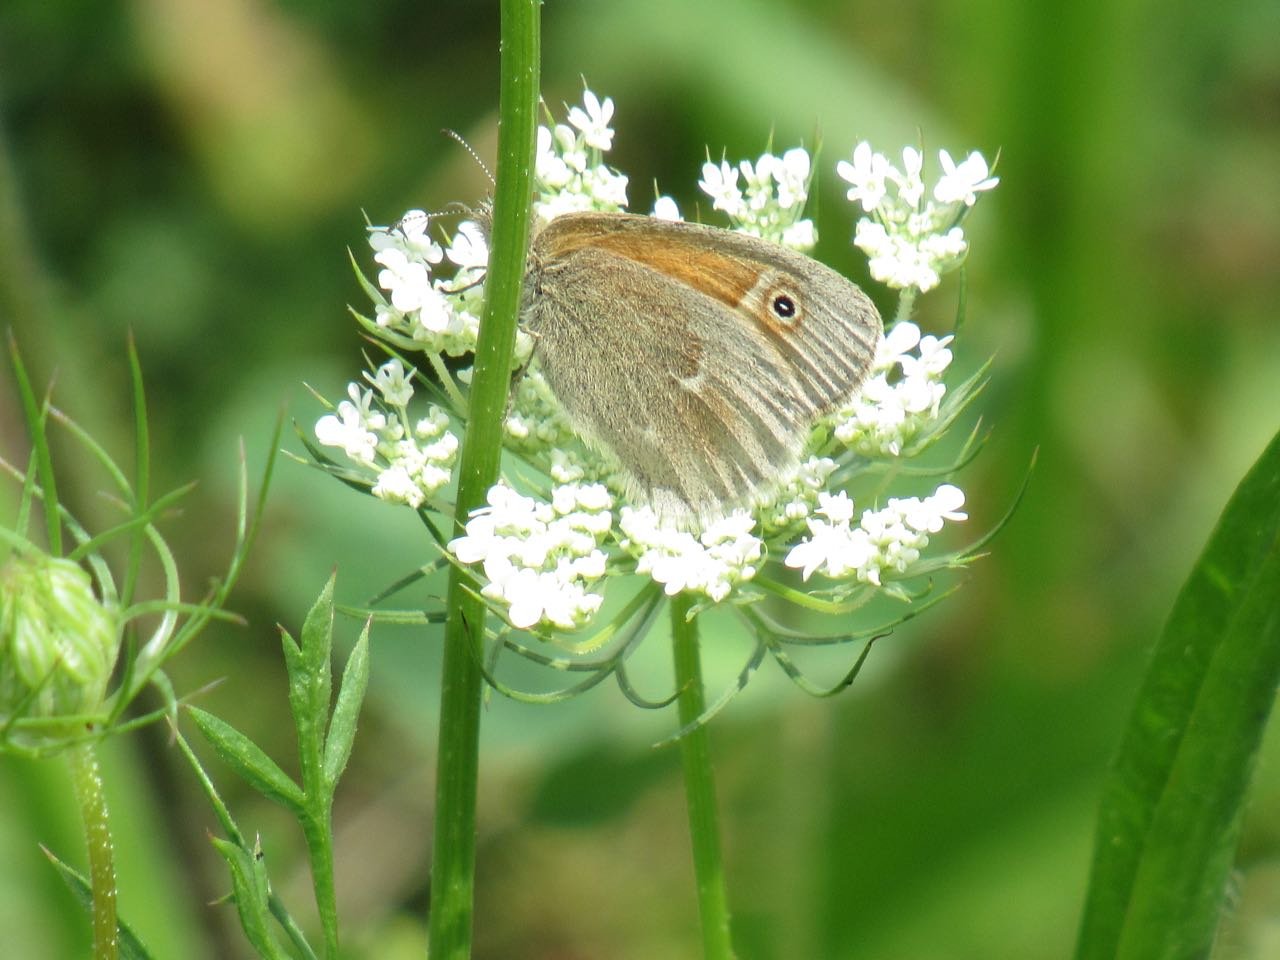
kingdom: Animalia
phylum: Arthropoda
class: Insecta
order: Lepidoptera
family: Nymphalidae
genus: Coenonympha
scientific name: Coenonympha tullia
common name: Large Heath
